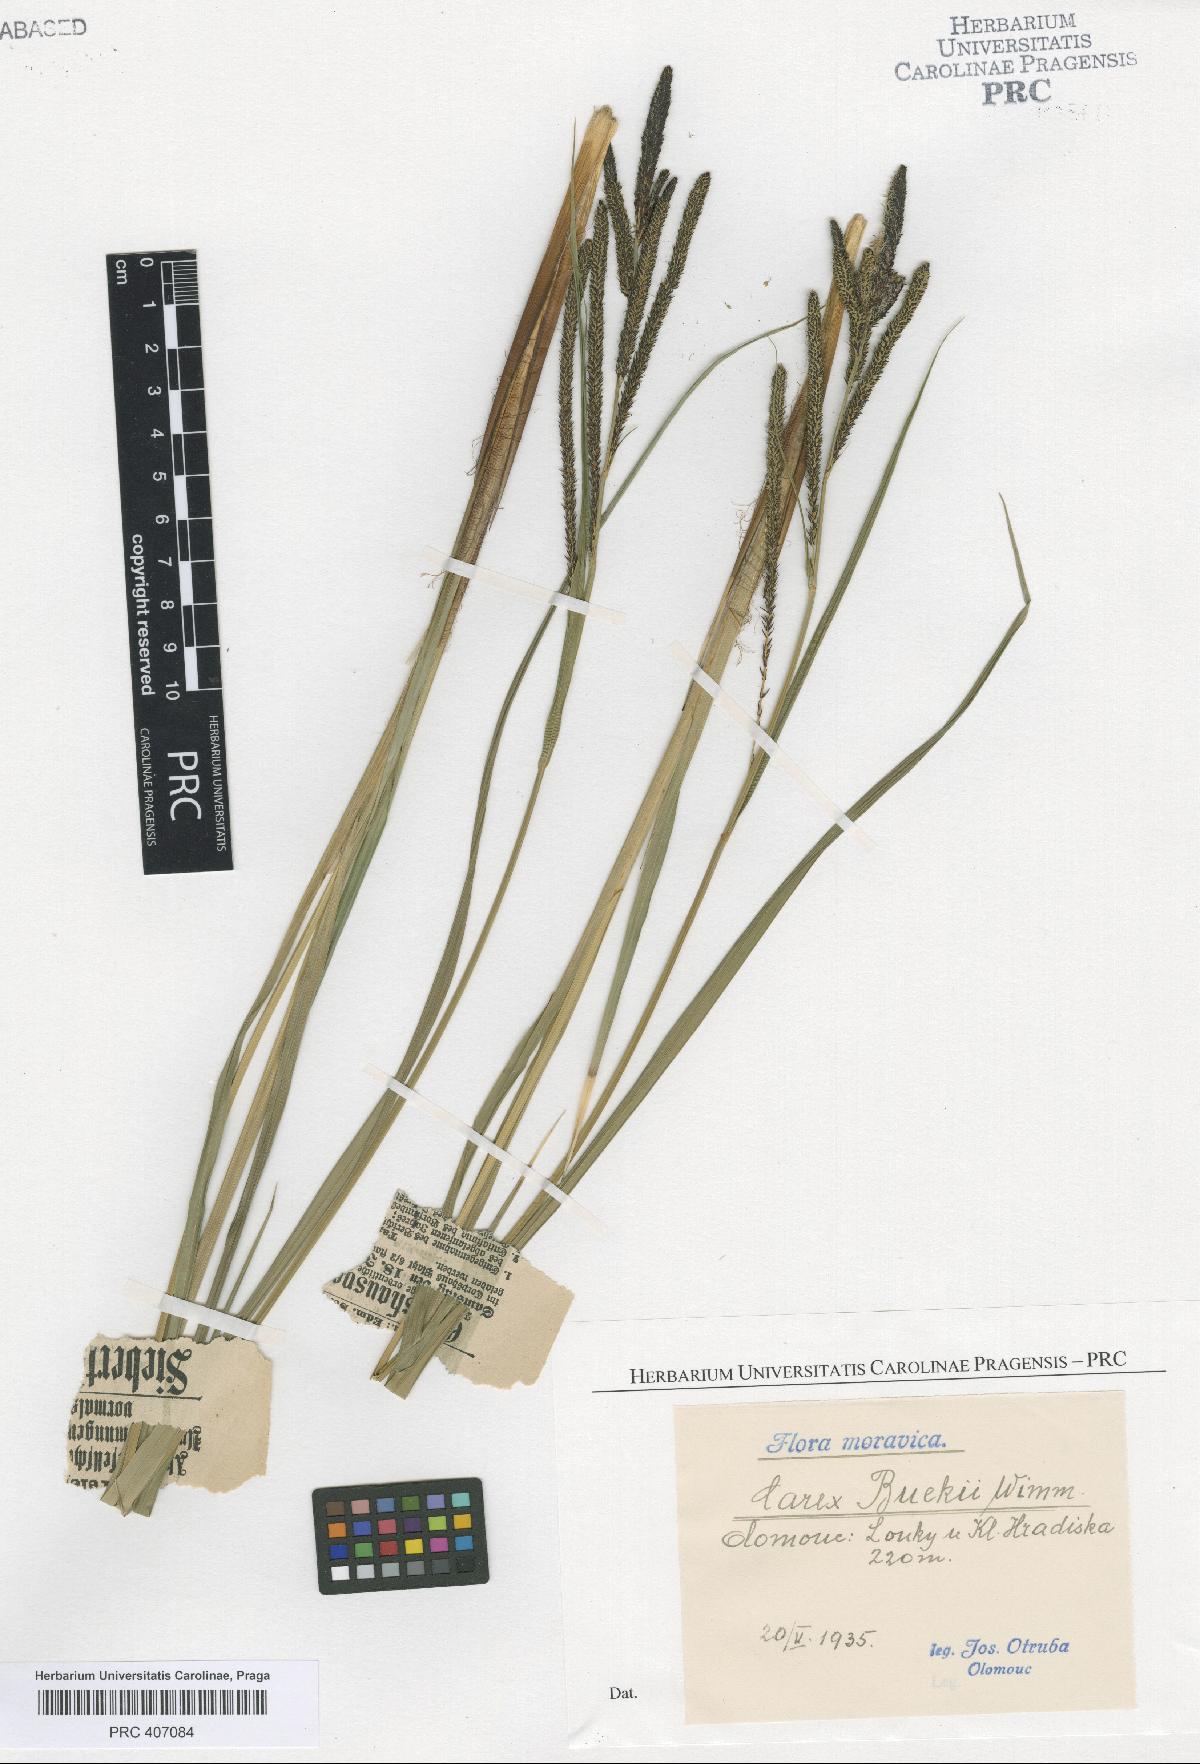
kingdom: Plantae
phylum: Tracheophyta
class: Liliopsida
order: Poales
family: Cyperaceae
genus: Carex
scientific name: Carex buekii
